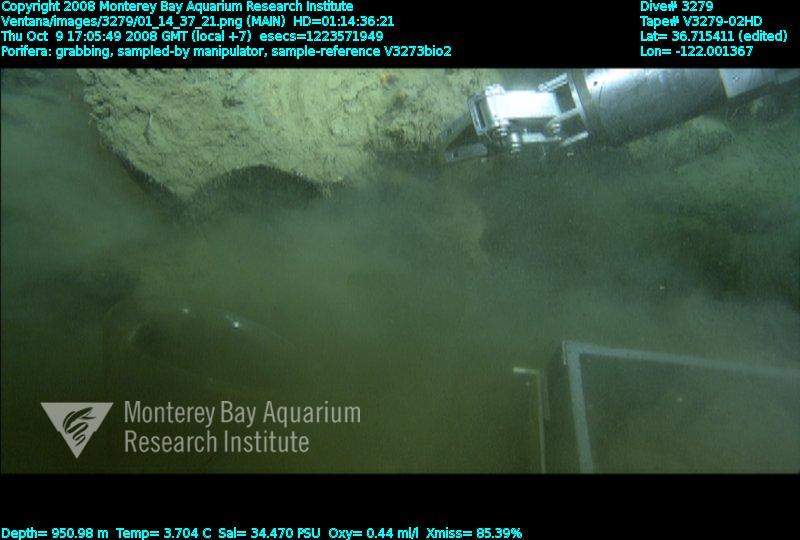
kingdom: Animalia
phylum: Porifera
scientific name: Porifera
